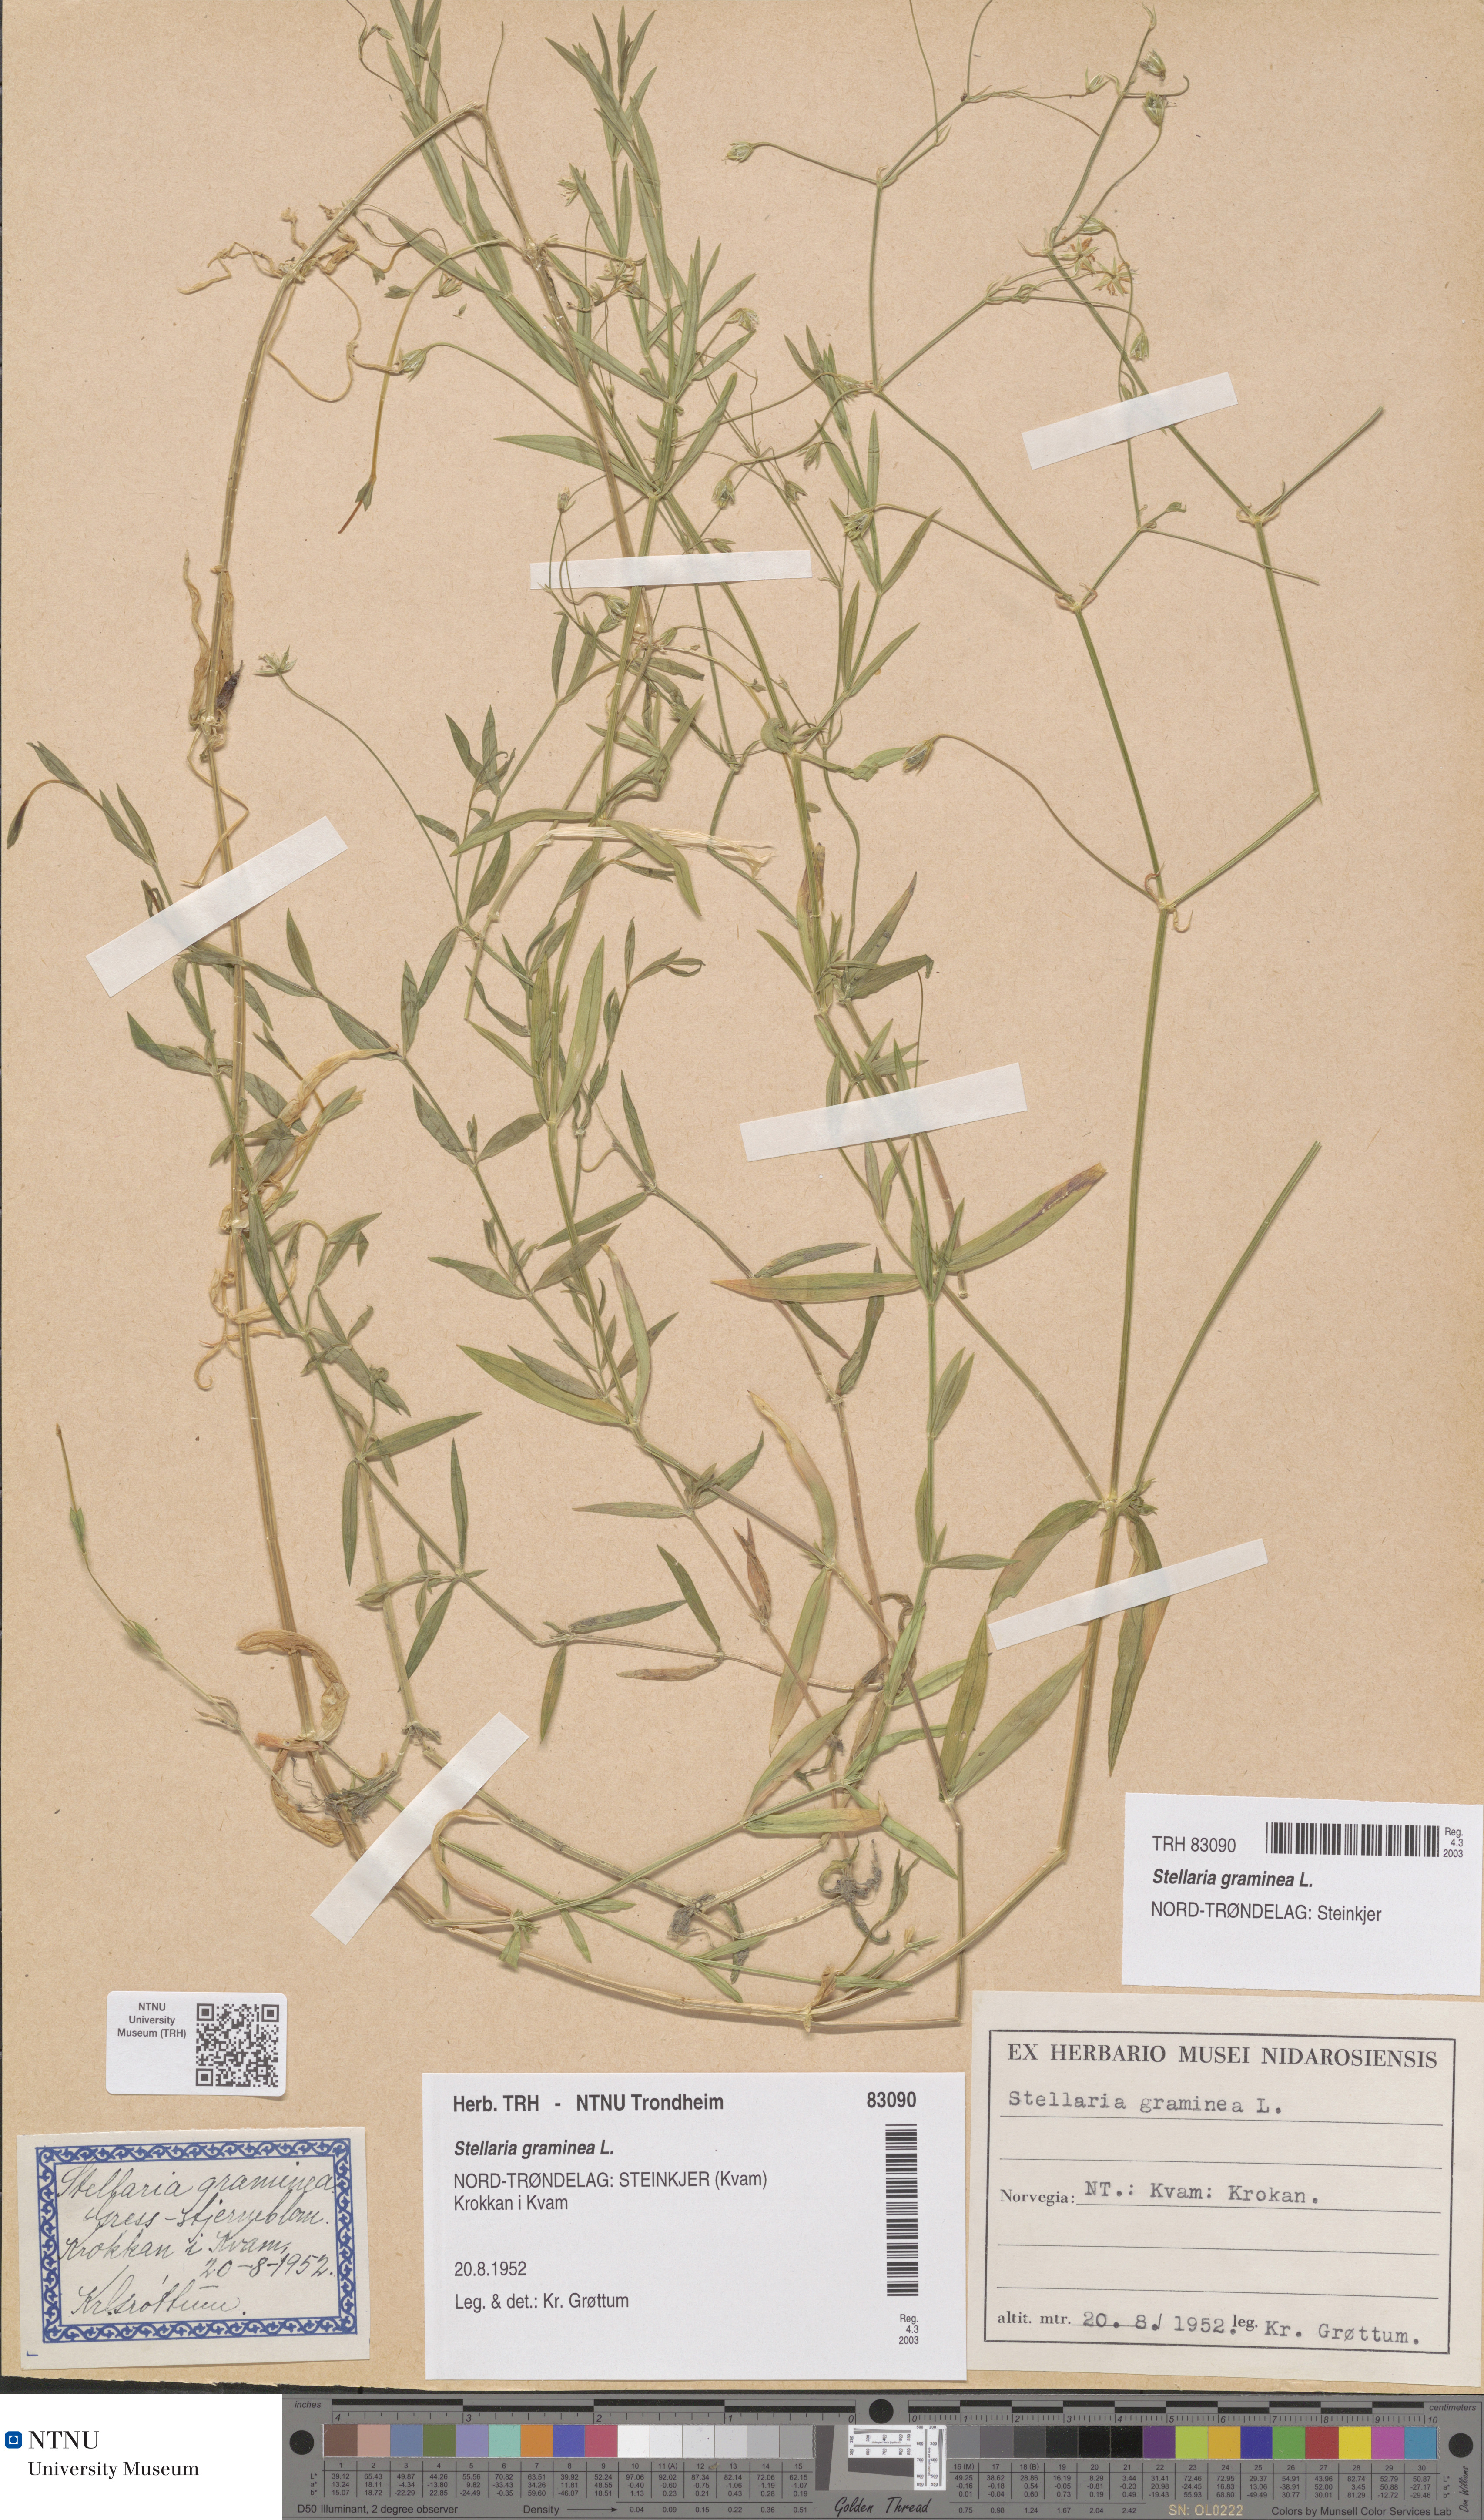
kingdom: Plantae
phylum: Tracheophyta
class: Magnoliopsida
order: Caryophyllales
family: Caryophyllaceae
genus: Stellaria
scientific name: Stellaria graminea
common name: Grass-like starwort
